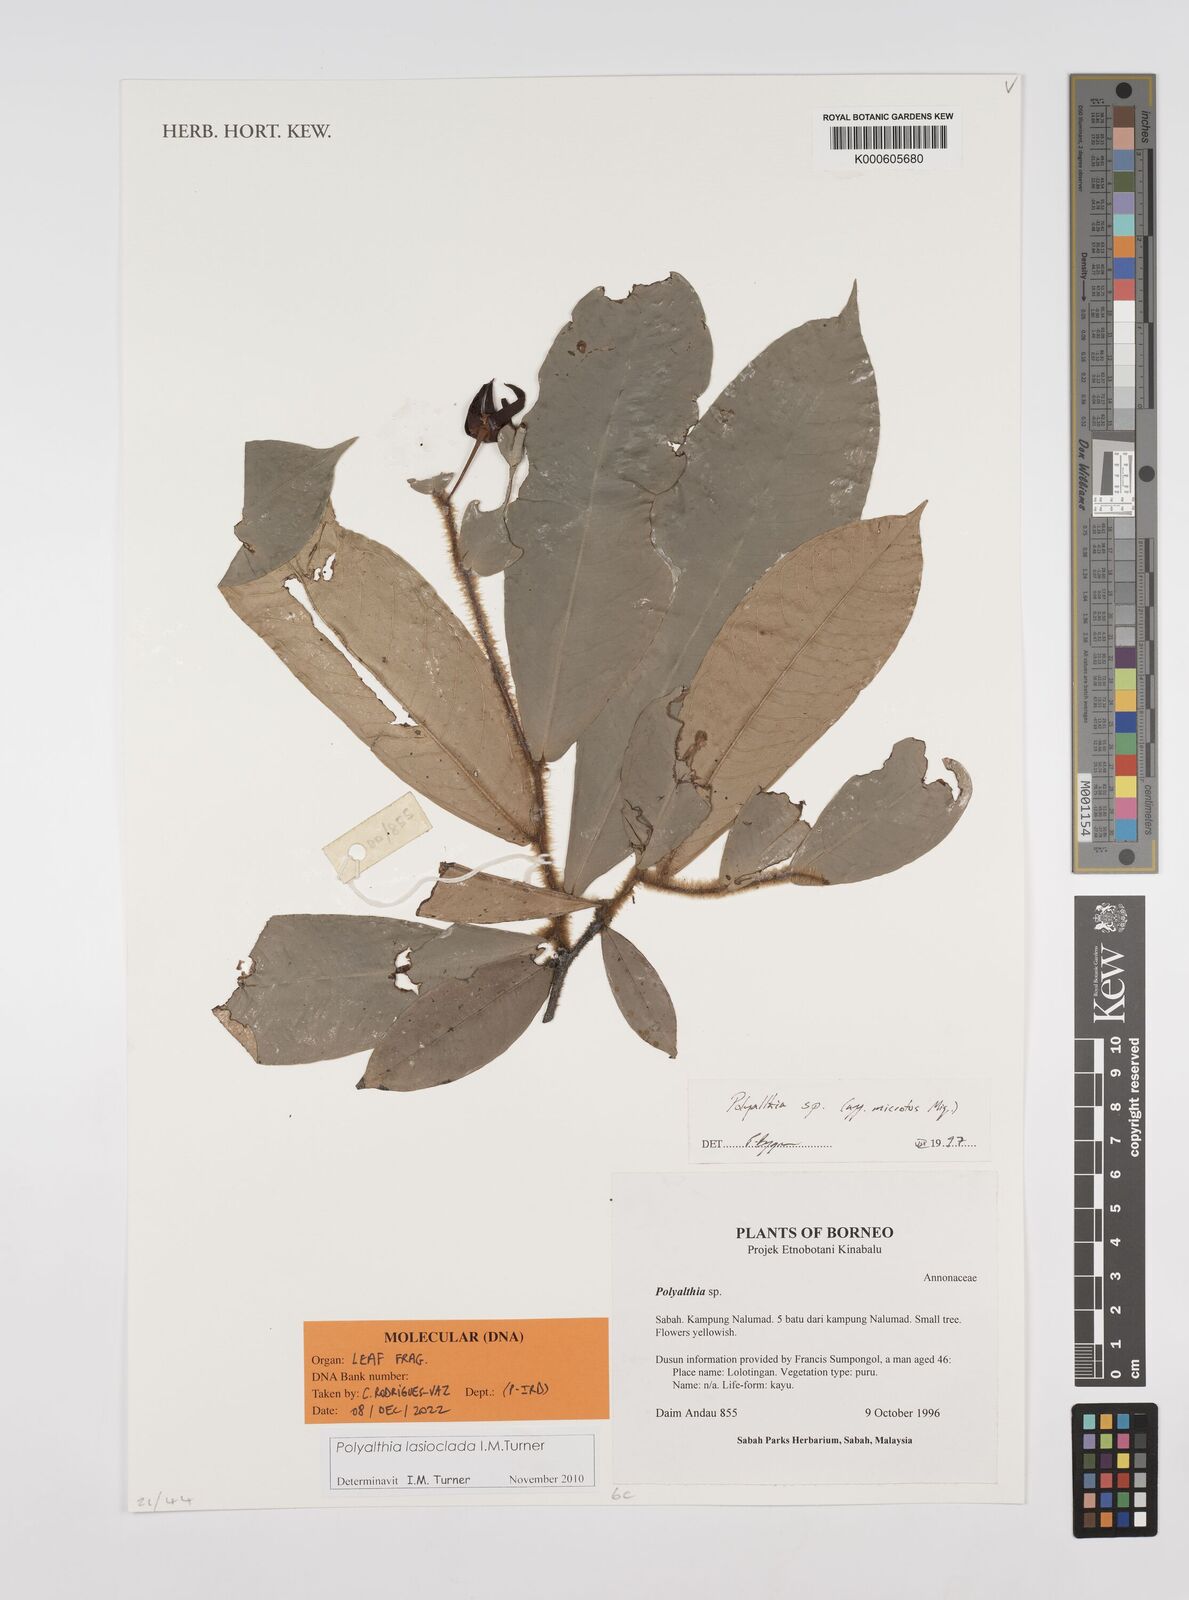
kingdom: Plantae
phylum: Tracheophyta
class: Magnoliopsida
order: Magnoliales
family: Annonaceae
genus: Polyalthia
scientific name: Polyalthia
